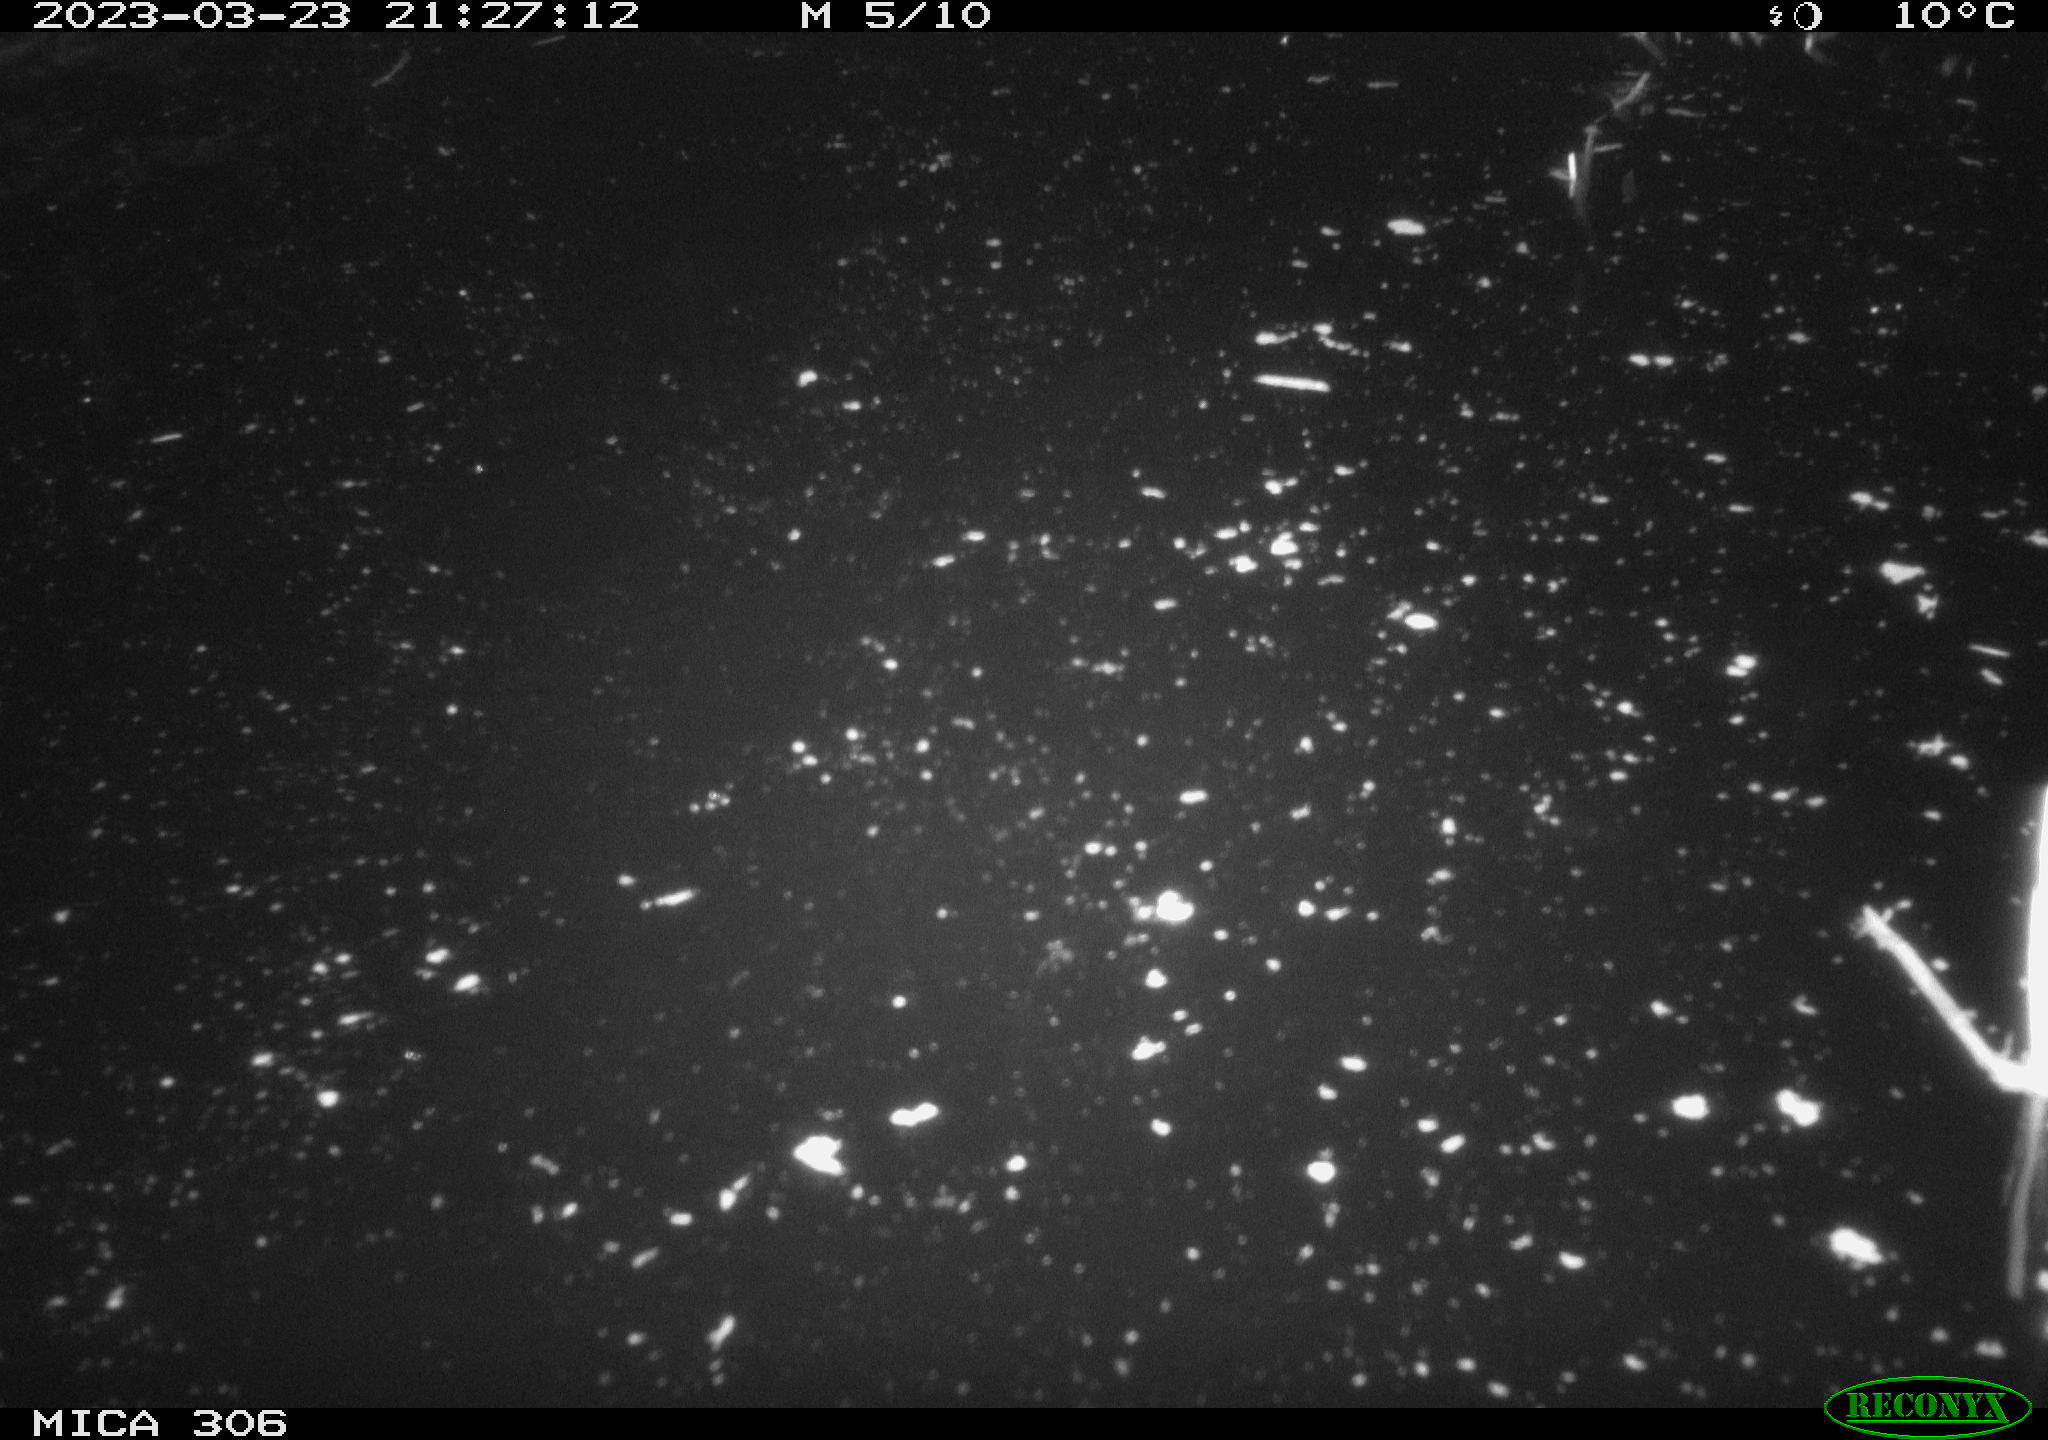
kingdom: Animalia
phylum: Chordata
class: Mammalia
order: Rodentia
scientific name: Rodentia
